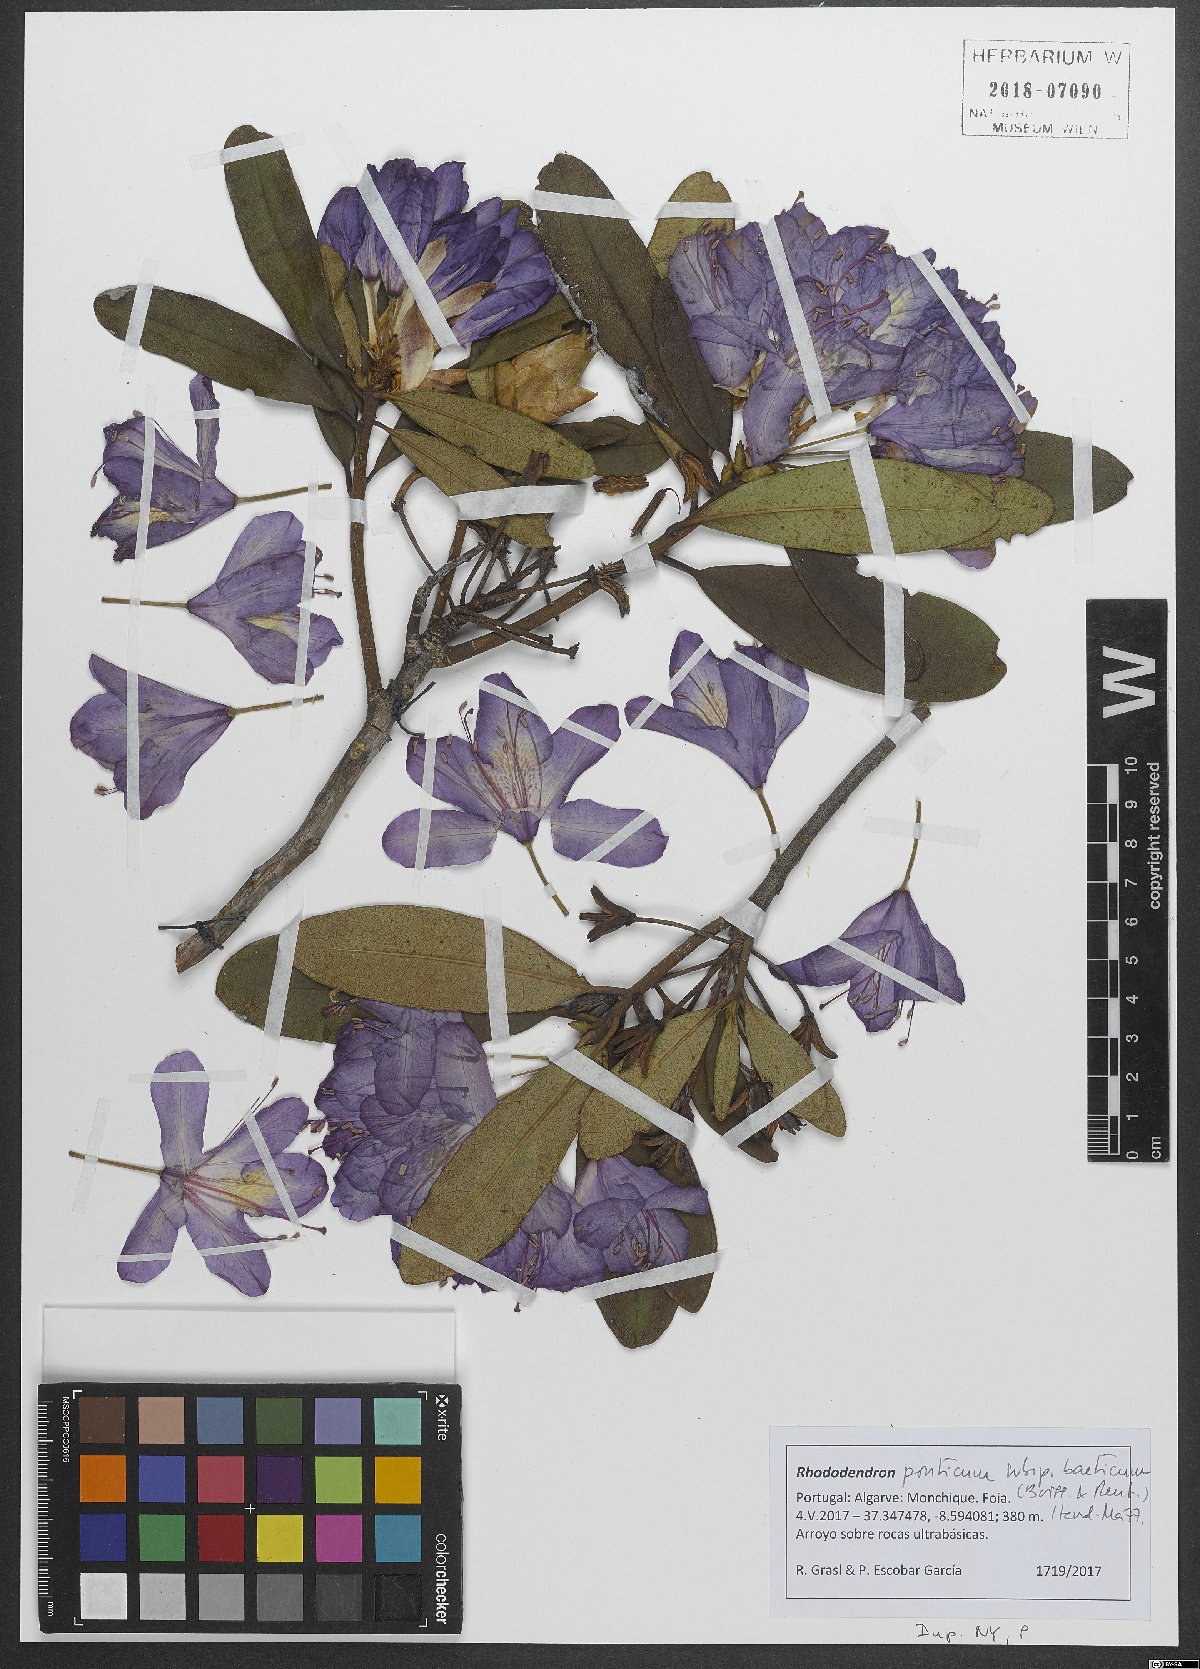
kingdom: Plantae
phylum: Tracheophyta
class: Magnoliopsida
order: Ericales
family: Ericaceae
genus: Rhododendron
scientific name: Rhododendron ponticum
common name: Rhododendron
